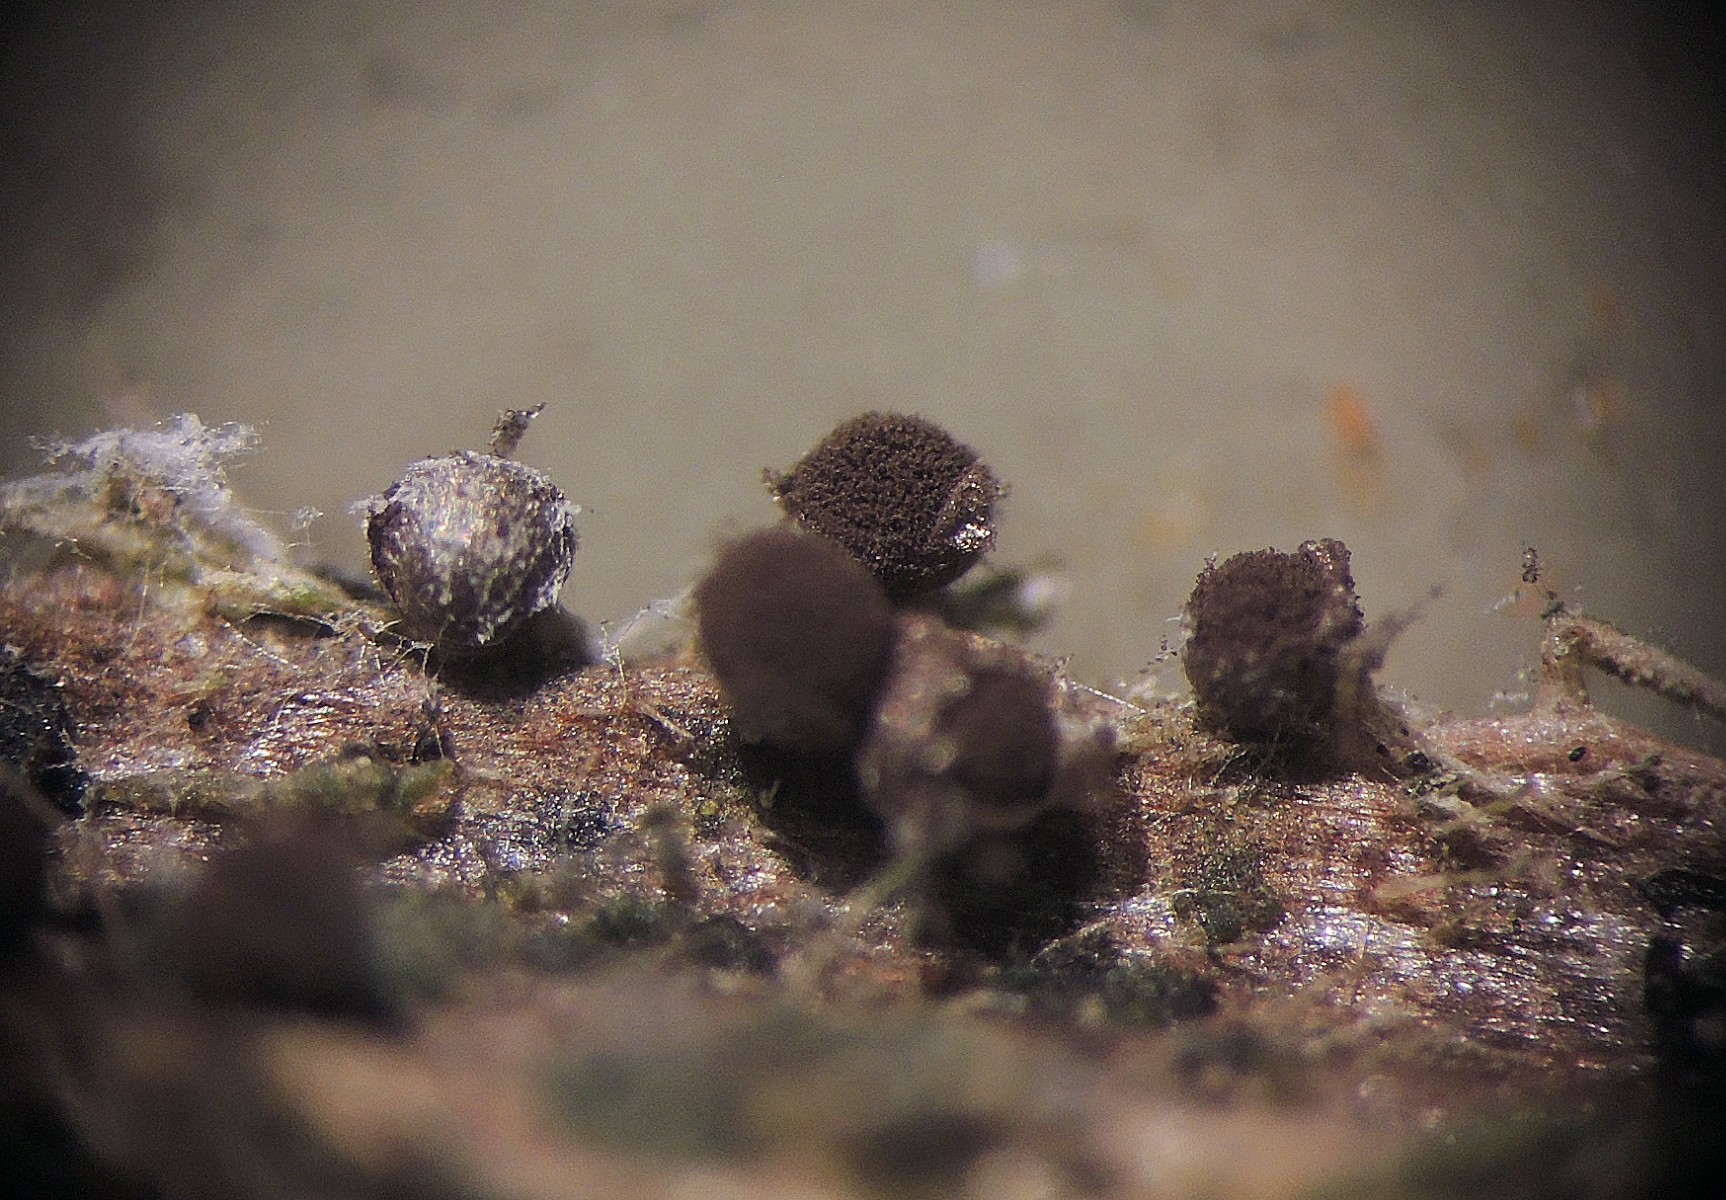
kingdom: Protozoa
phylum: Mycetozoa
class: Myxomycetes
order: Physarales
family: Didymiaceae
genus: Diachea
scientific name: Diachea subsessilis
